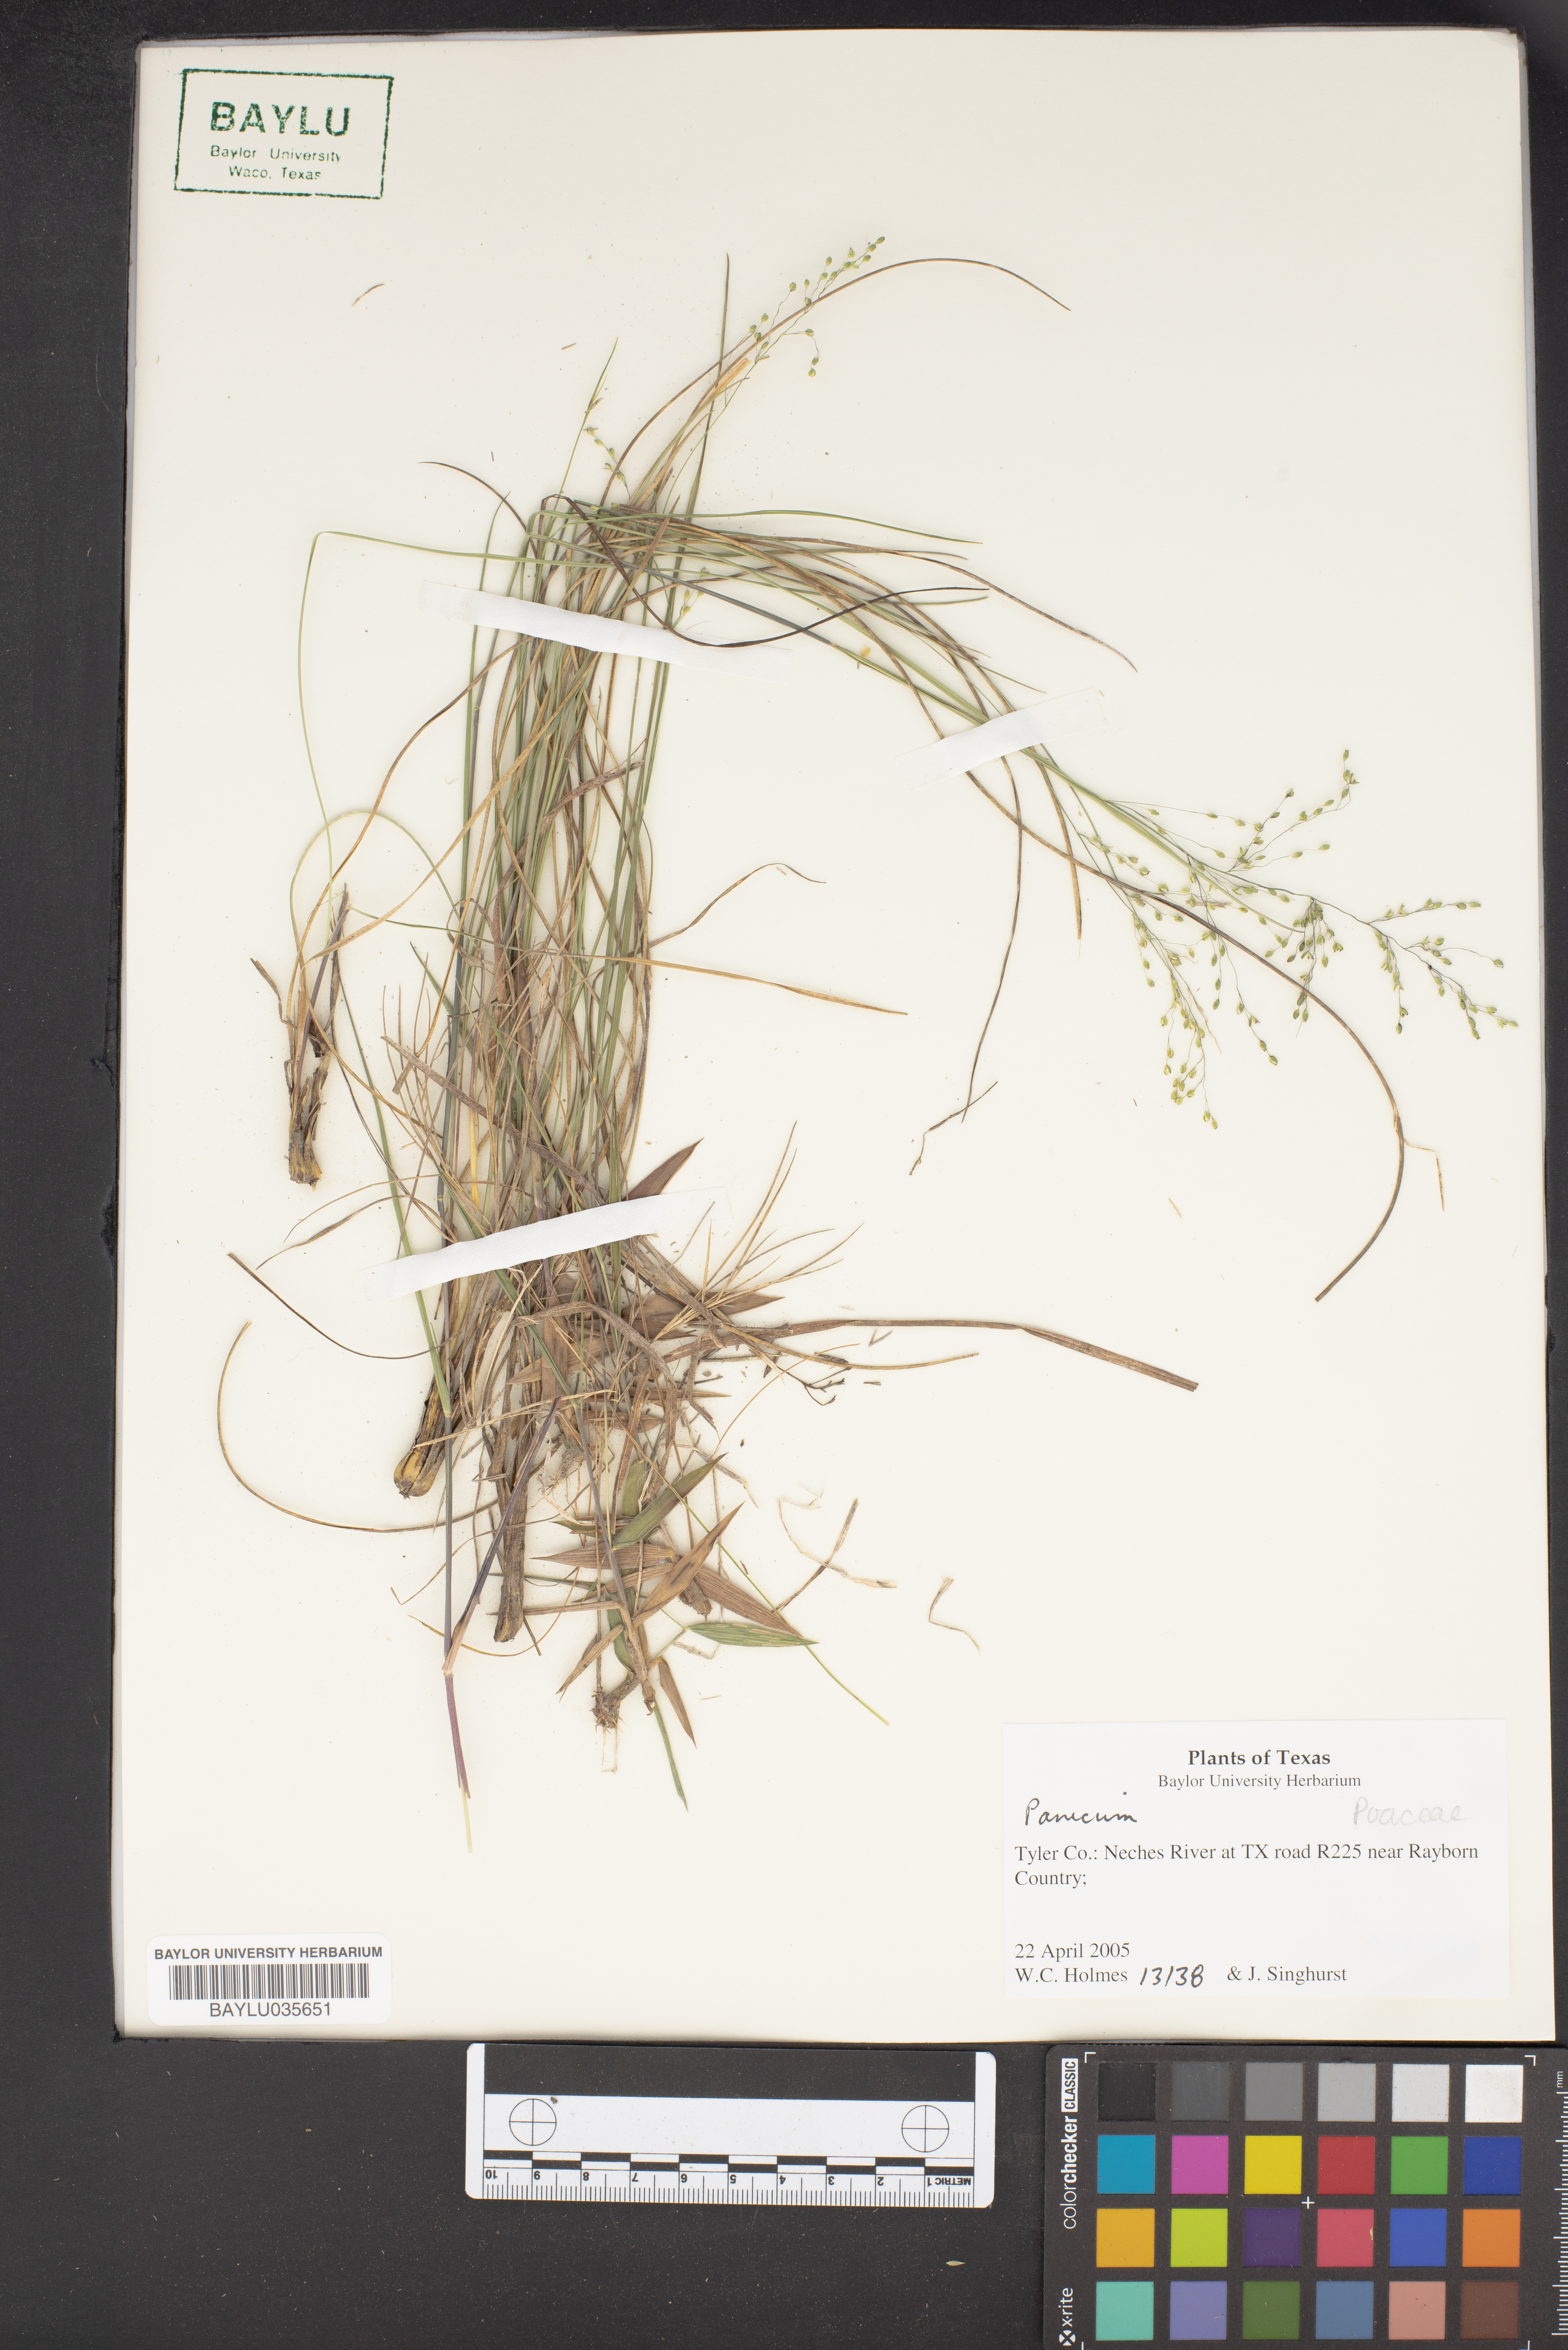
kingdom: Plantae
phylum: Tracheophyta
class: Liliopsida
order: Poales
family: Poaceae
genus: Panicum
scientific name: Panicum
